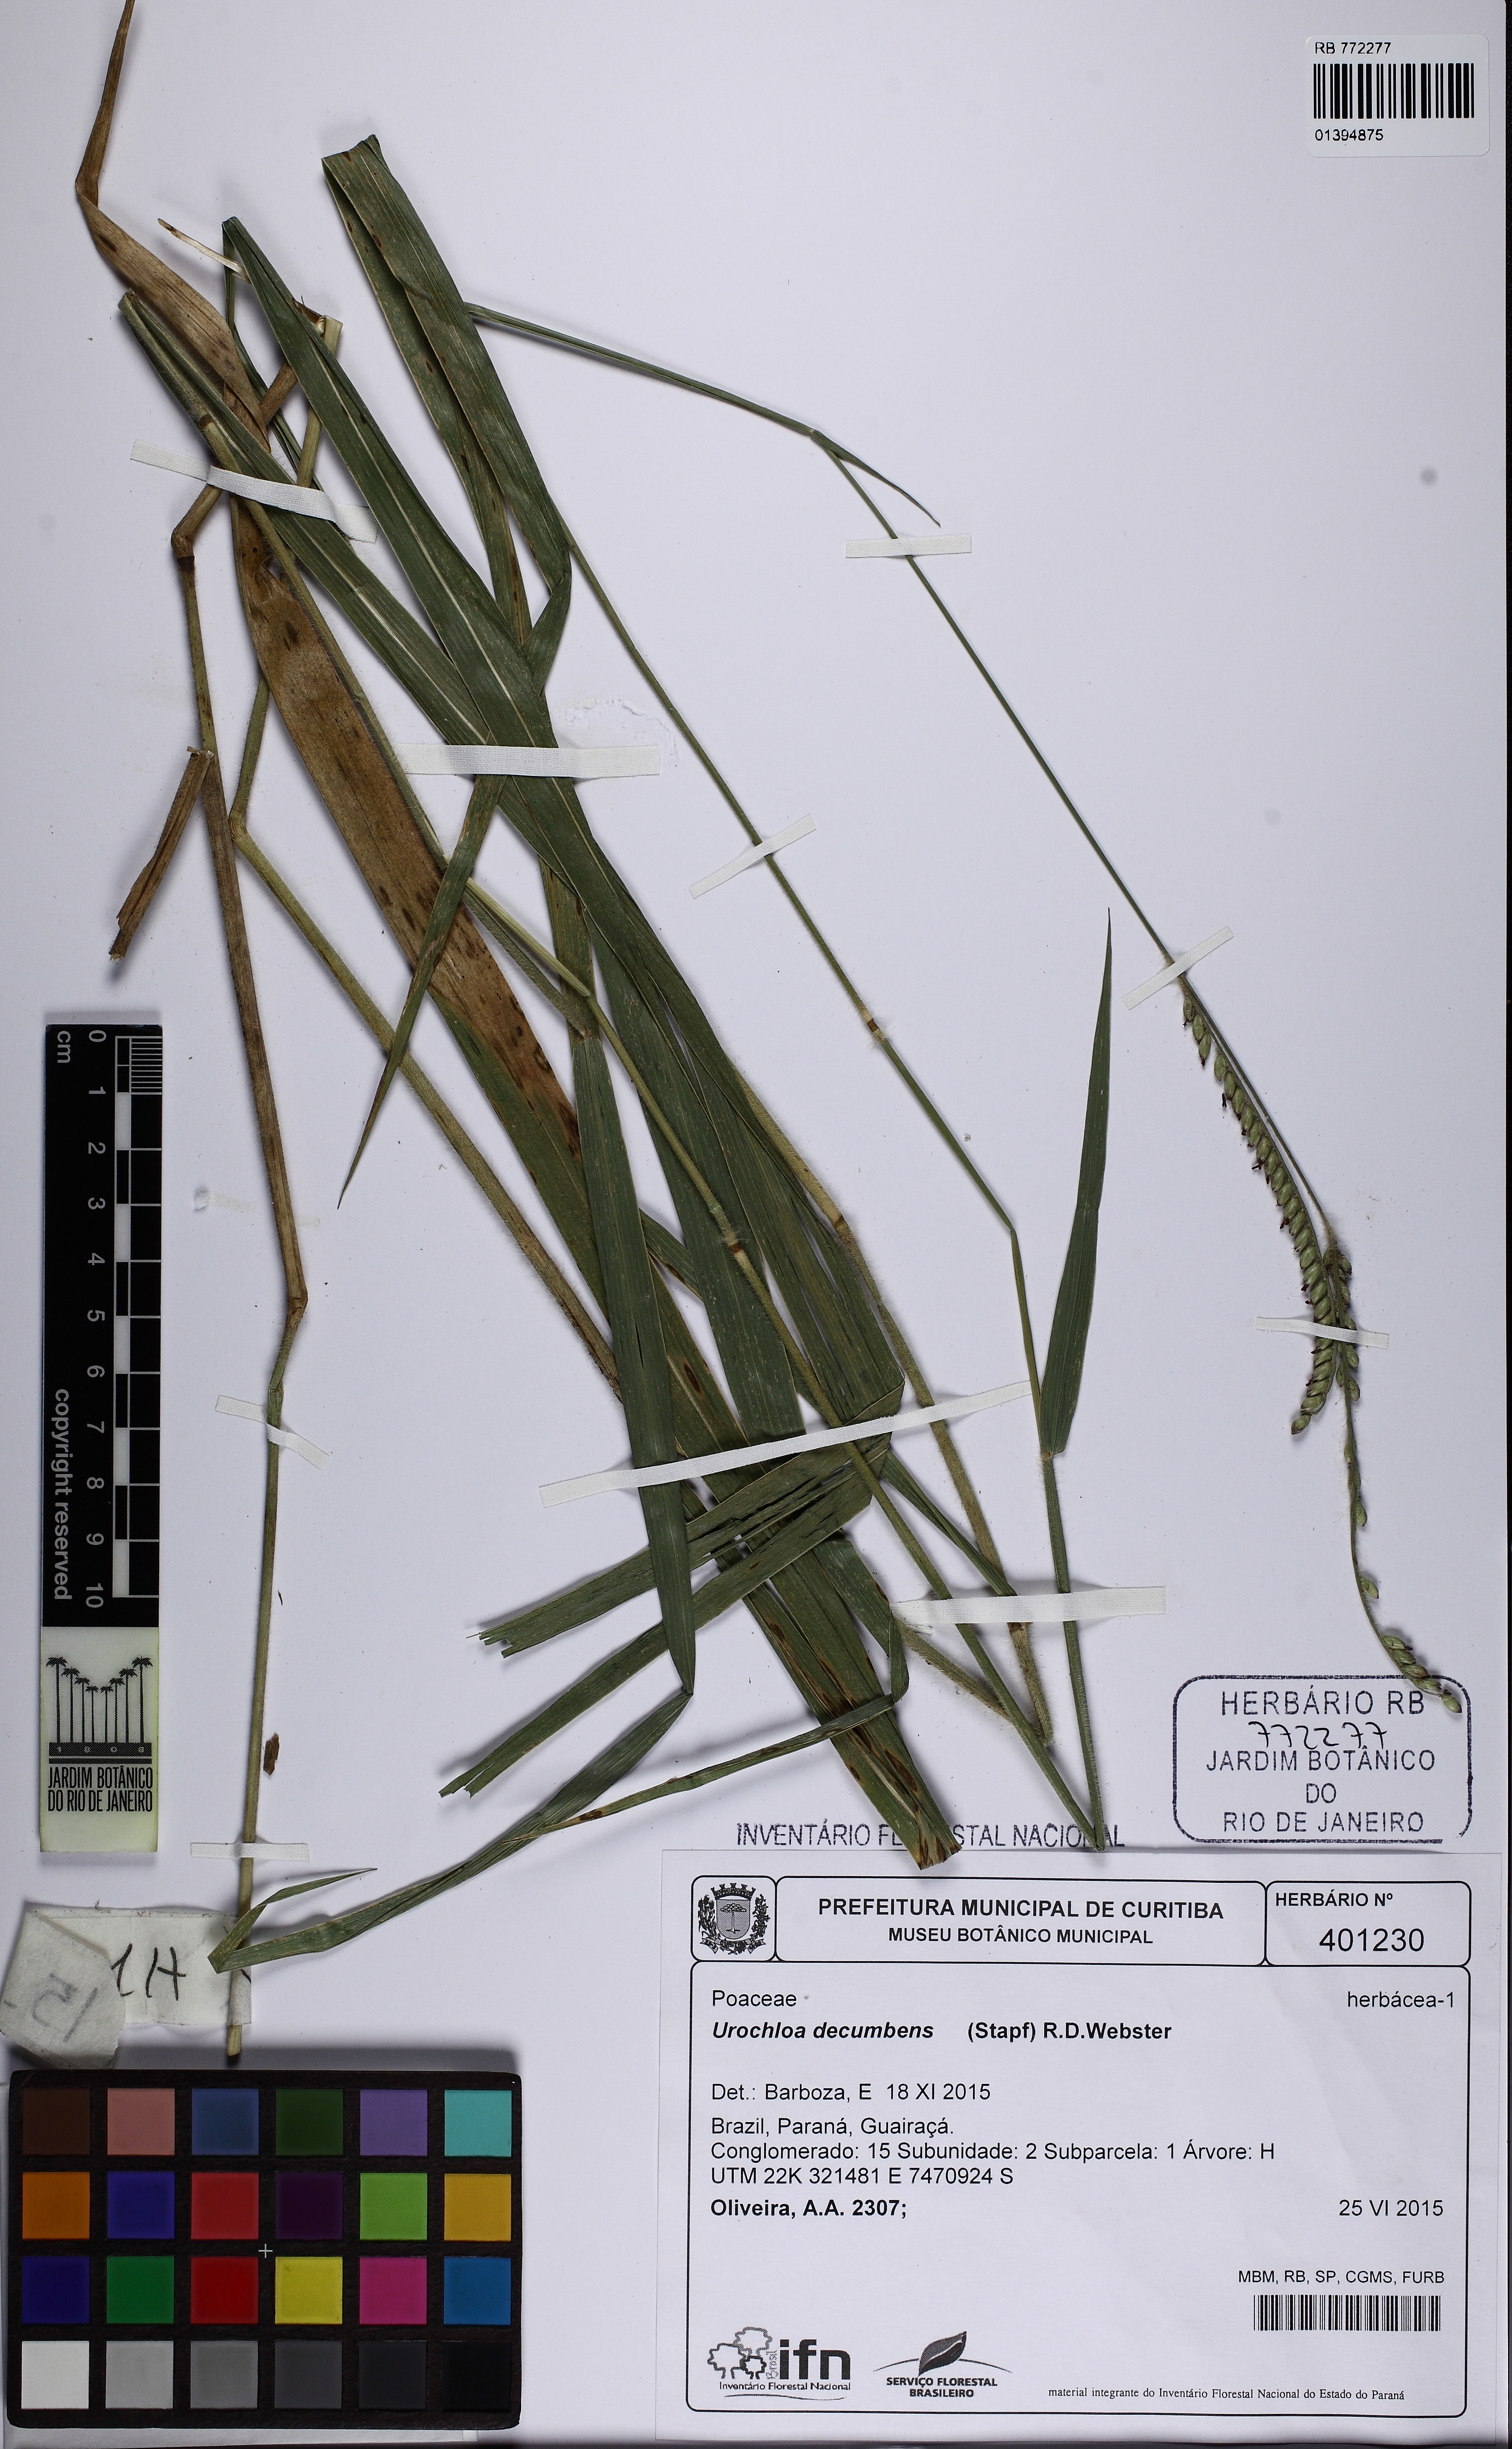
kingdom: Plantae
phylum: Tracheophyta
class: Liliopsida
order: Poales
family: Poaceae
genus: Urochloa
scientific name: Urochloa eminii
